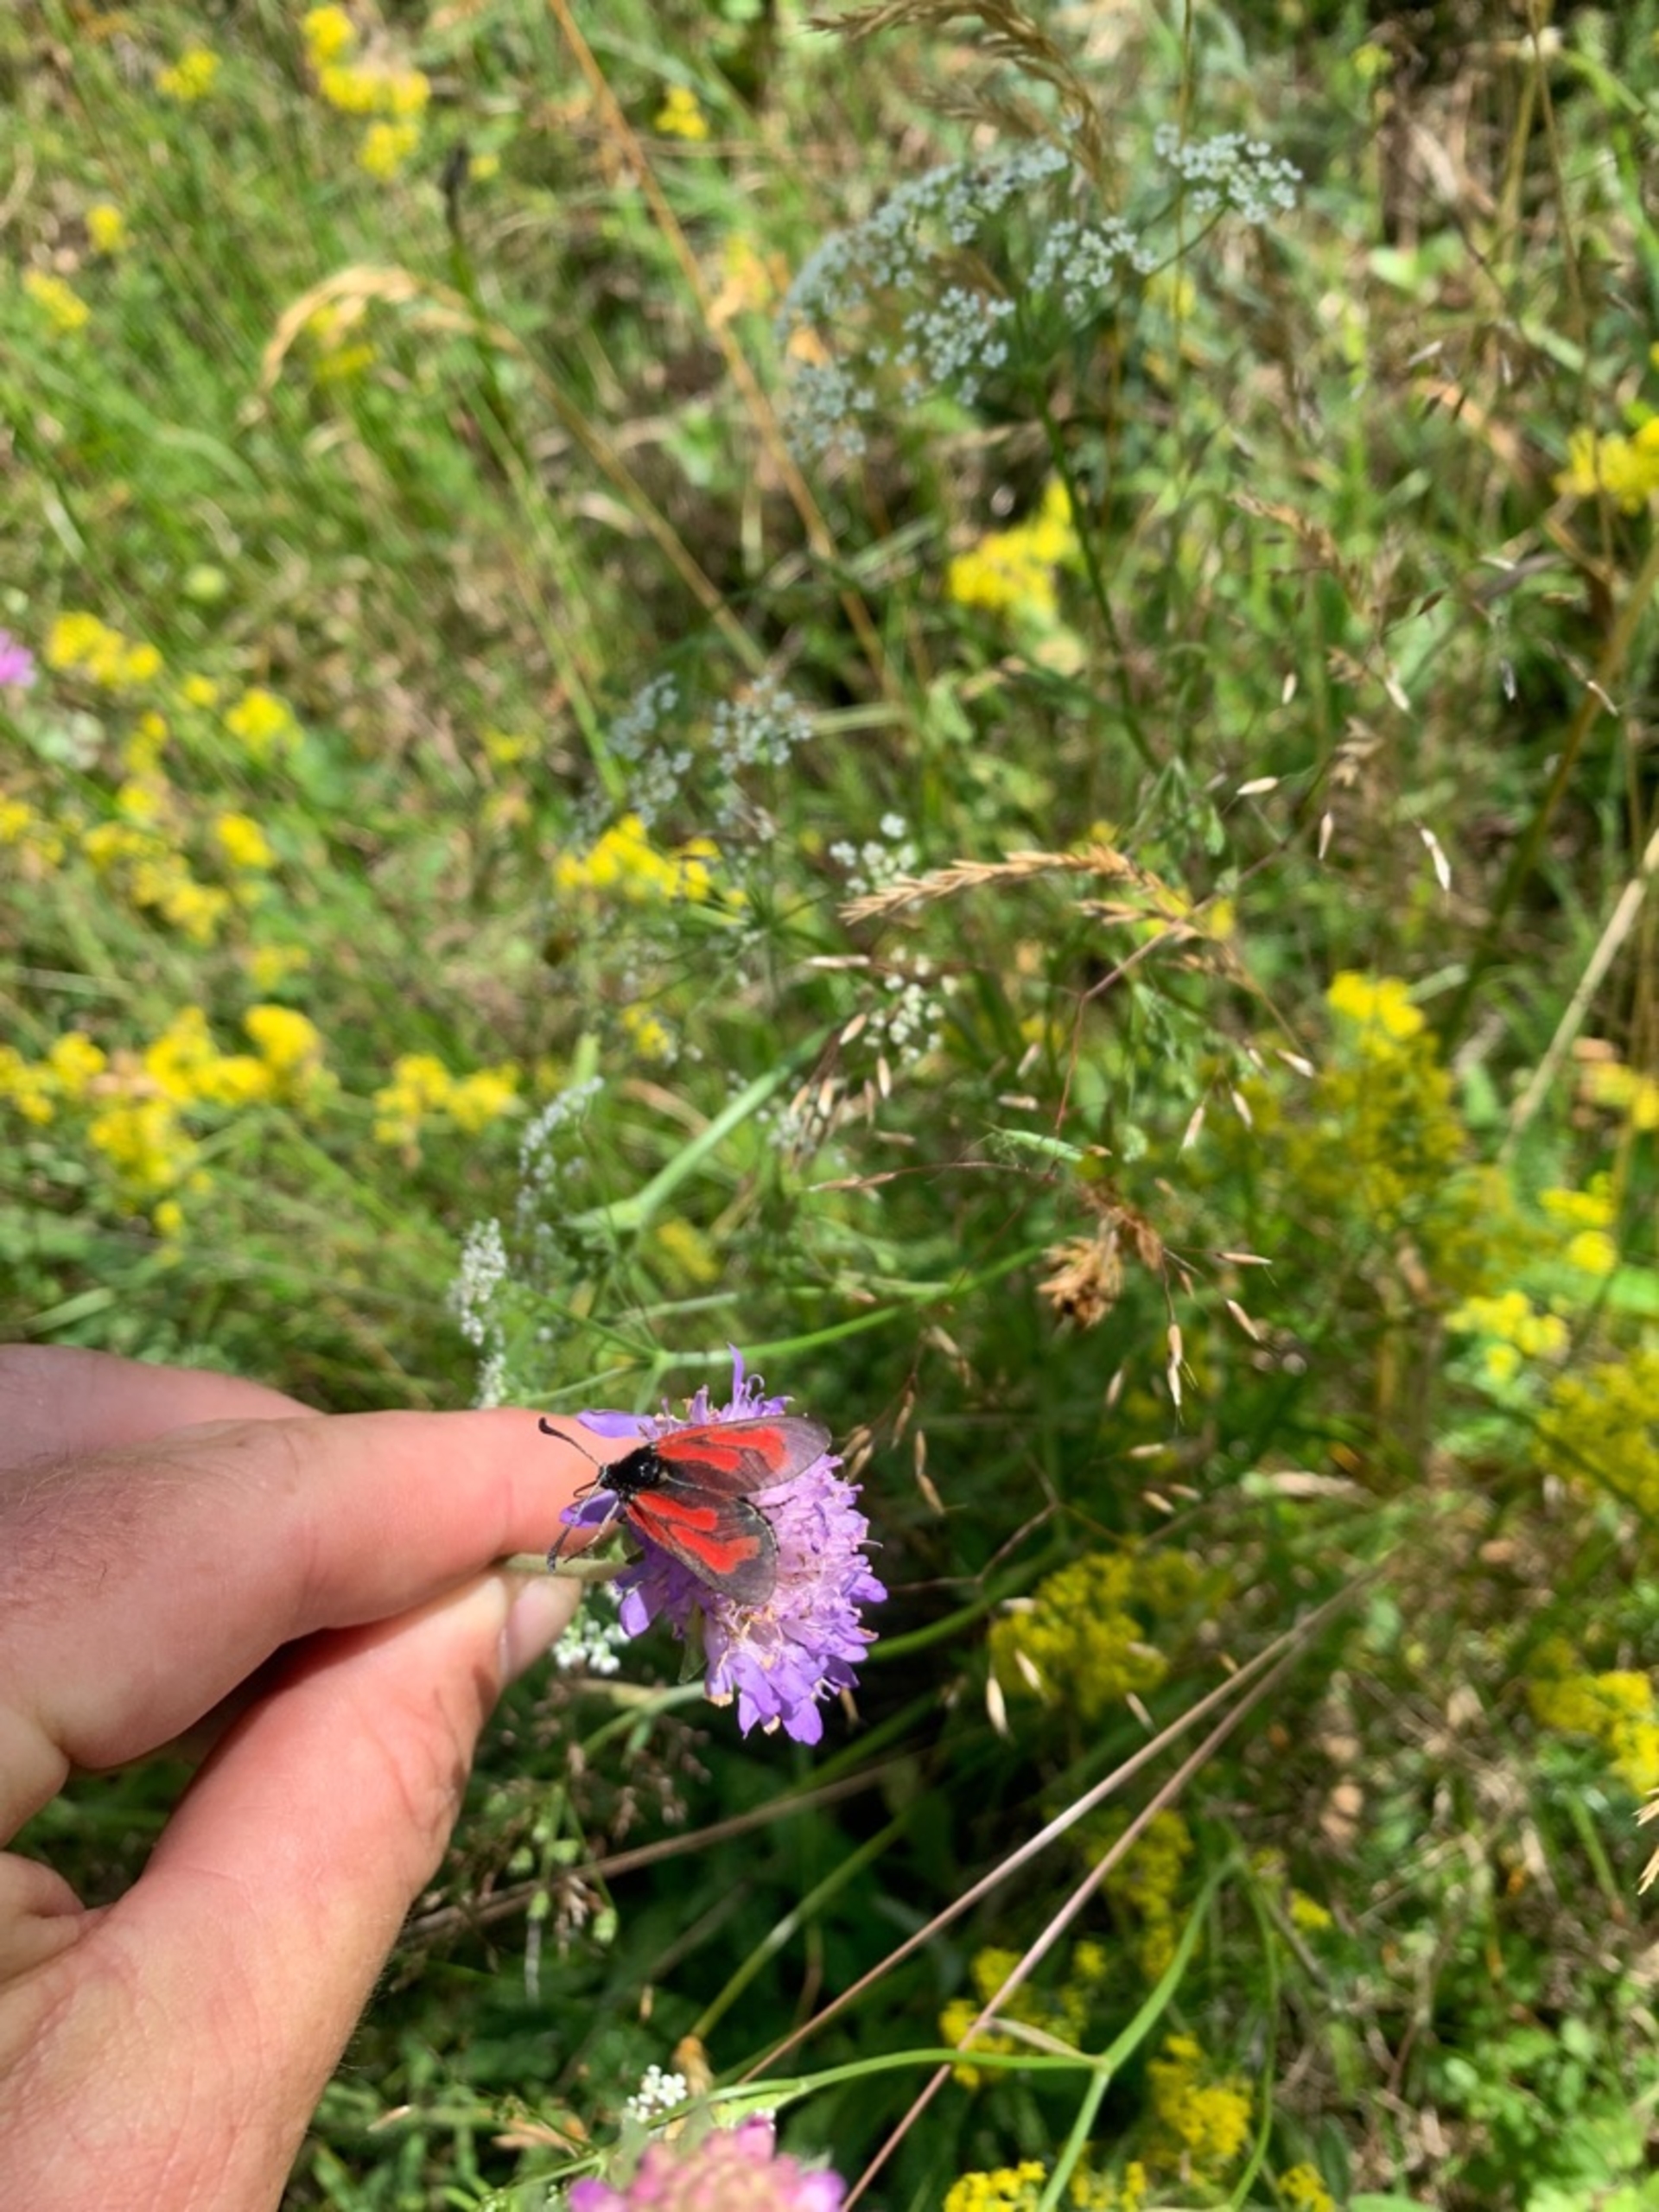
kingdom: Animalia
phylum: Arthropoda
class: Insecta
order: Lepidoptera
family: Zygaenidae
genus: Zygaena
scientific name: Zygaena minos
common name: Pimpernelkøllesværmer
